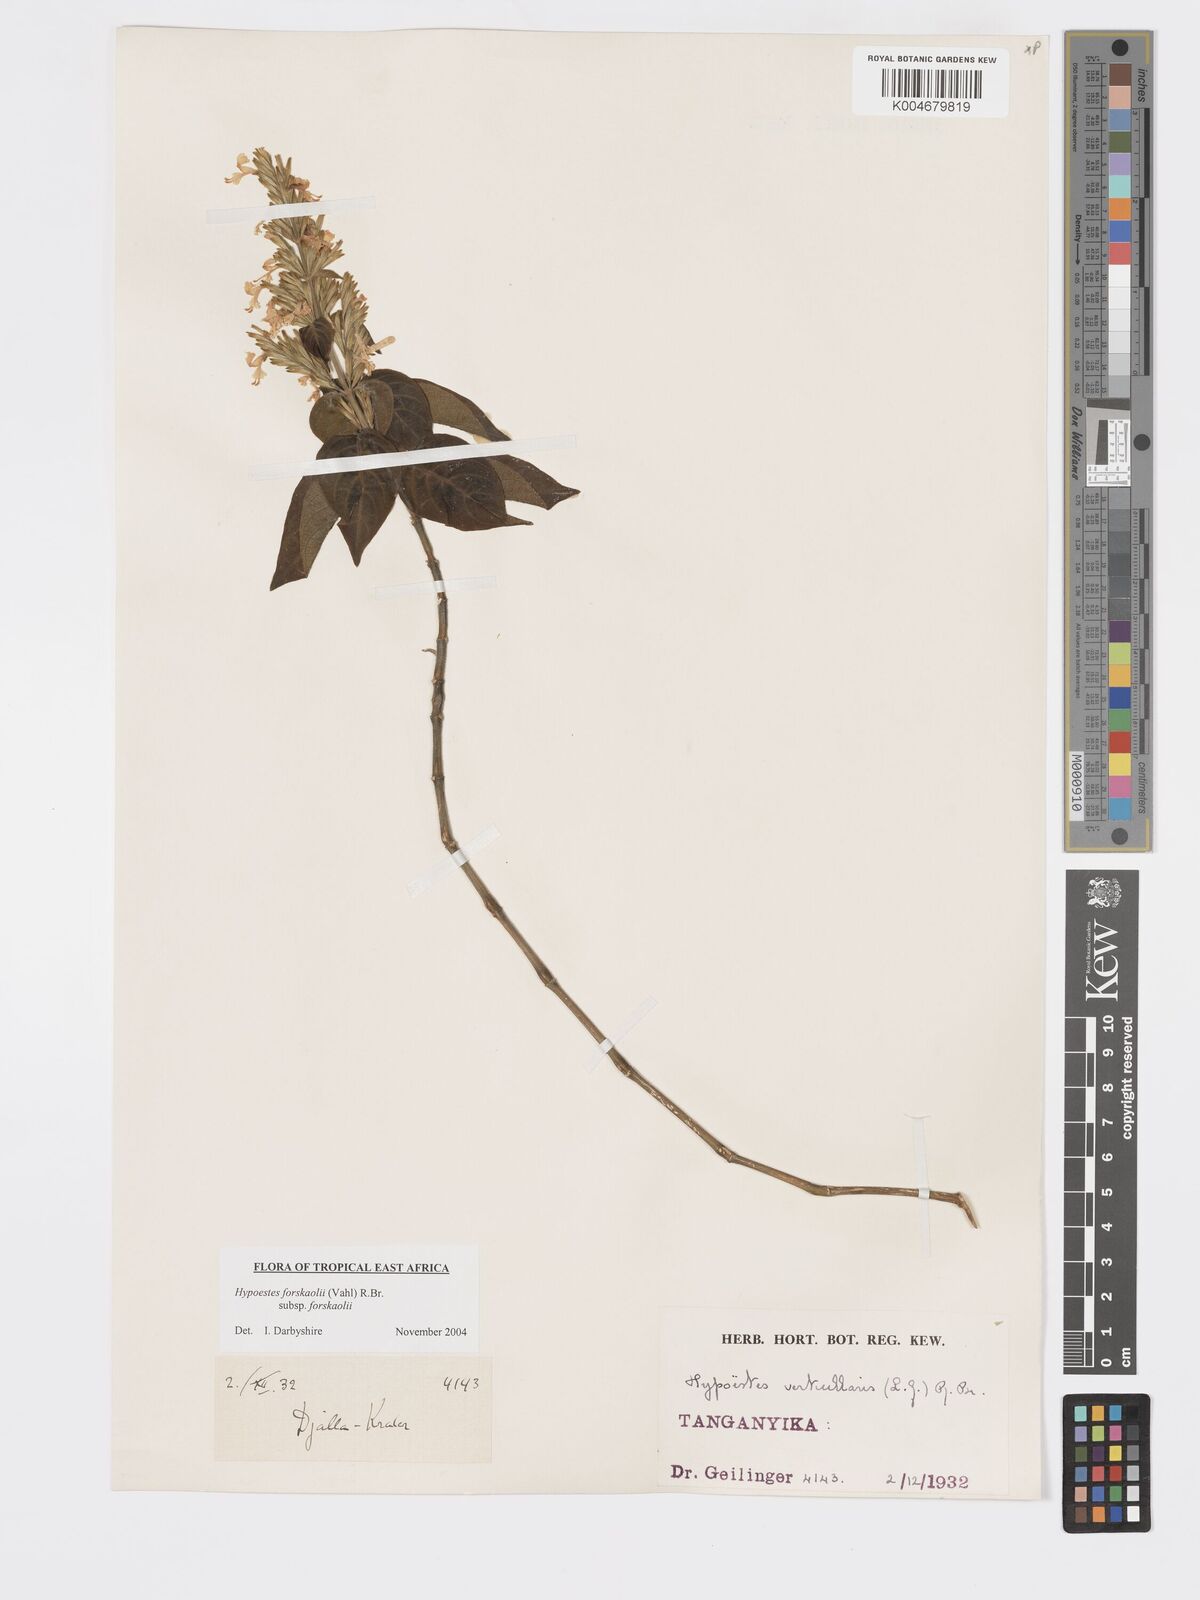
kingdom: Plantae
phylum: Tracheophyta
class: Magnoliopsida
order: Lamiales
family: Acanthaceae
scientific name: Acanthaceae
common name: Acanthaceae
